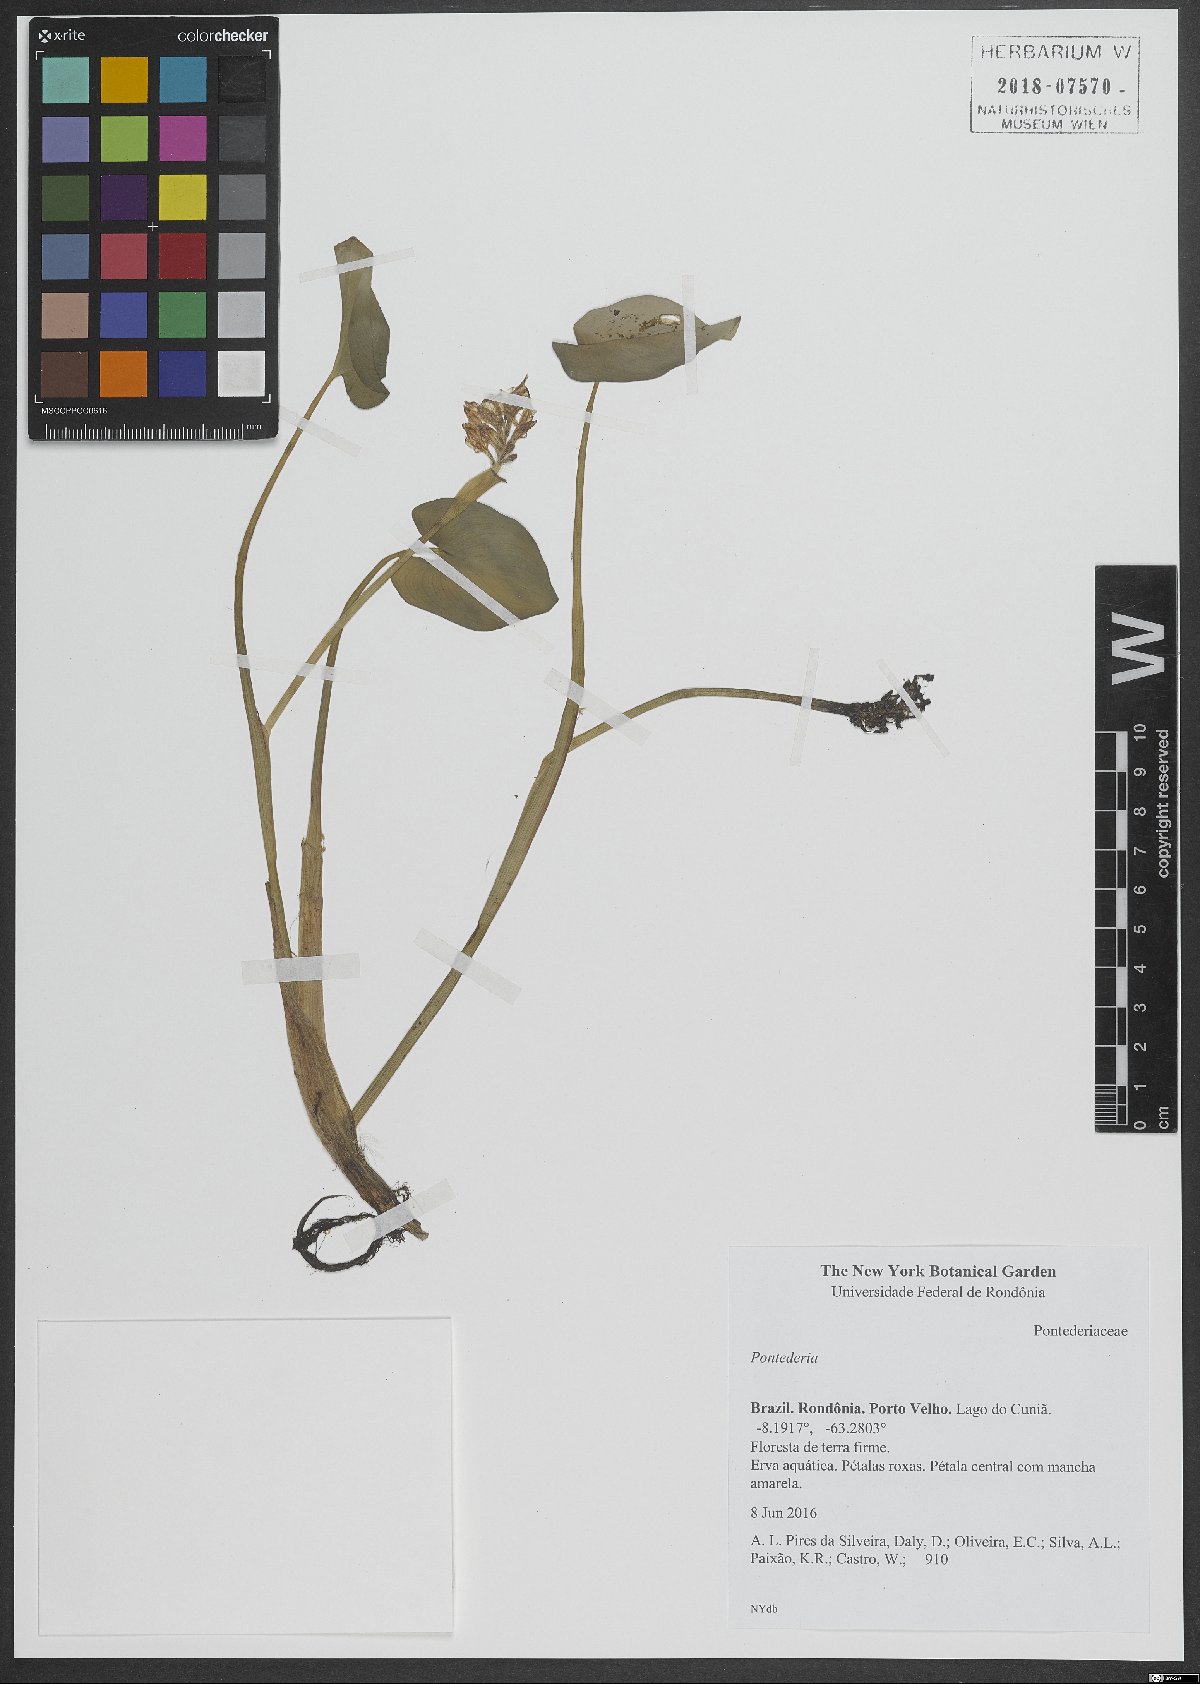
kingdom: Plantae
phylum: Tracheophyta
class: Liliopsida
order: Commelinales
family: Pontederiaceae
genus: Pontederia
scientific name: Pontederia
